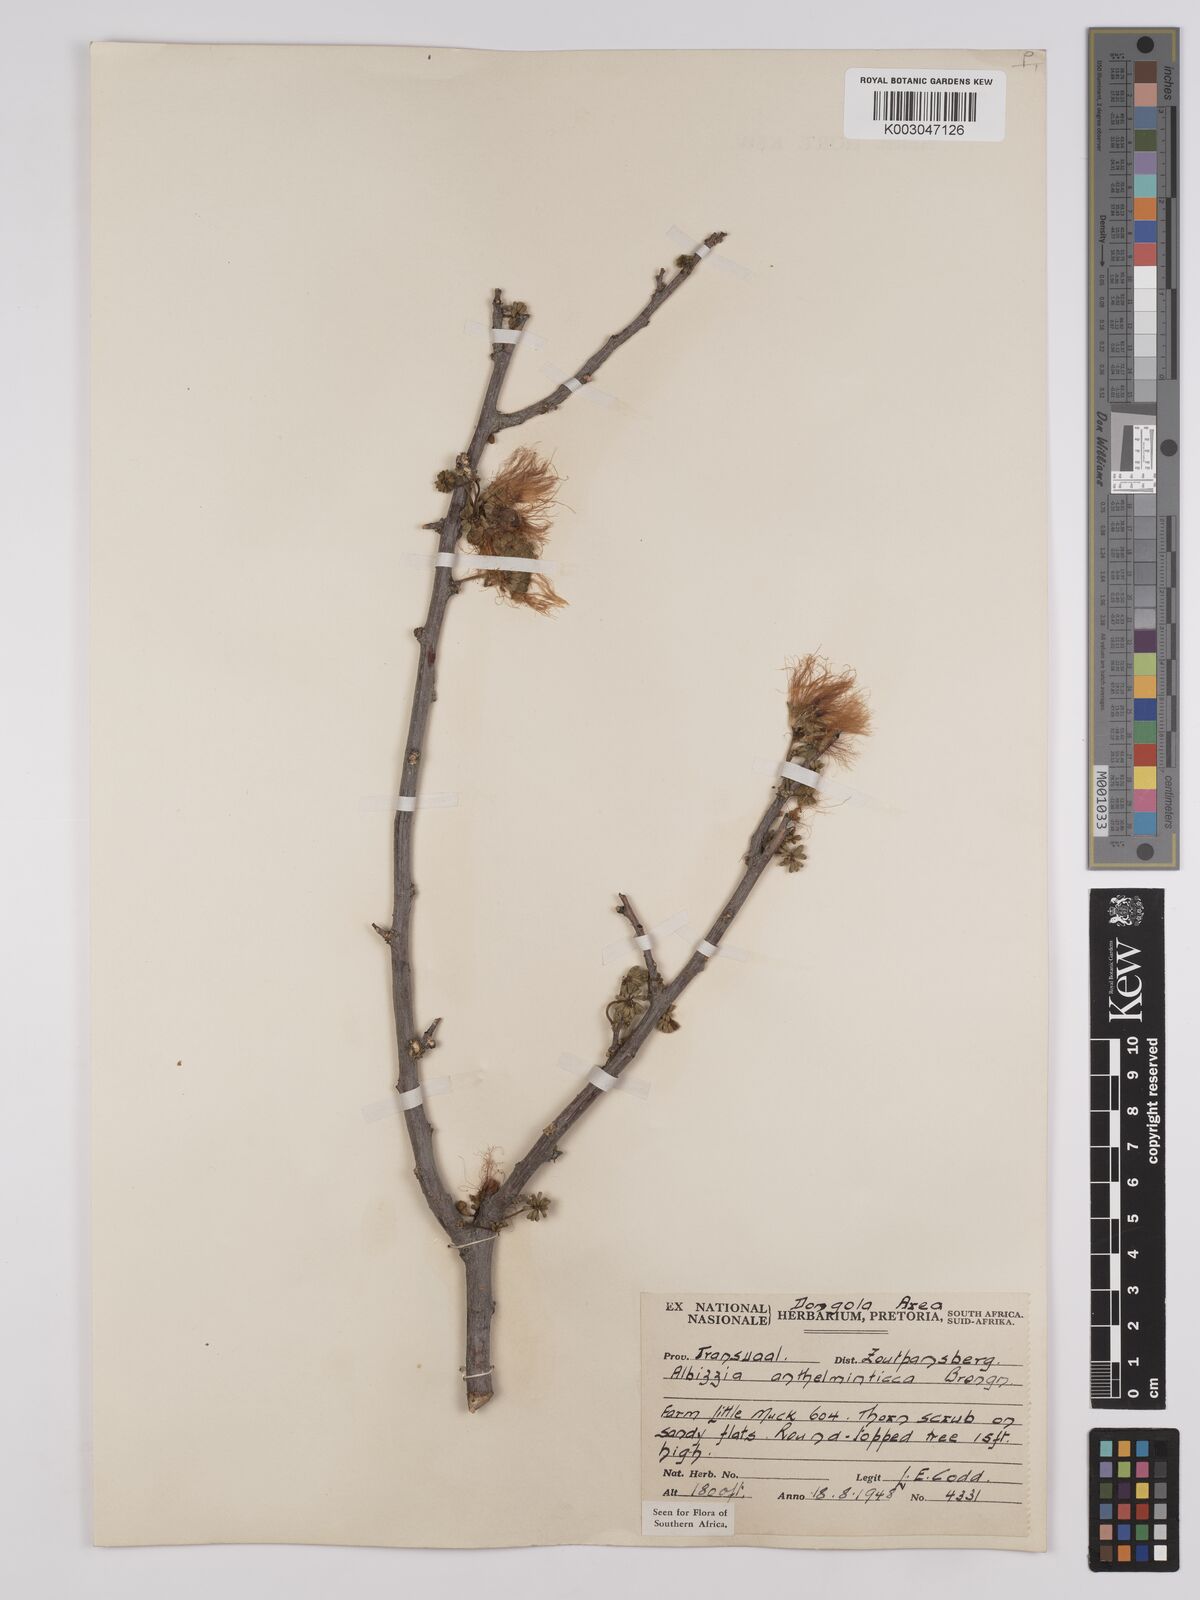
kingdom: Plantae
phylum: Tracheophyta
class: Magnoliopsida
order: Fabales
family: Fabaceae
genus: Albizia
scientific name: Albizia anthelmintica
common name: Worm-bark false-thorn
